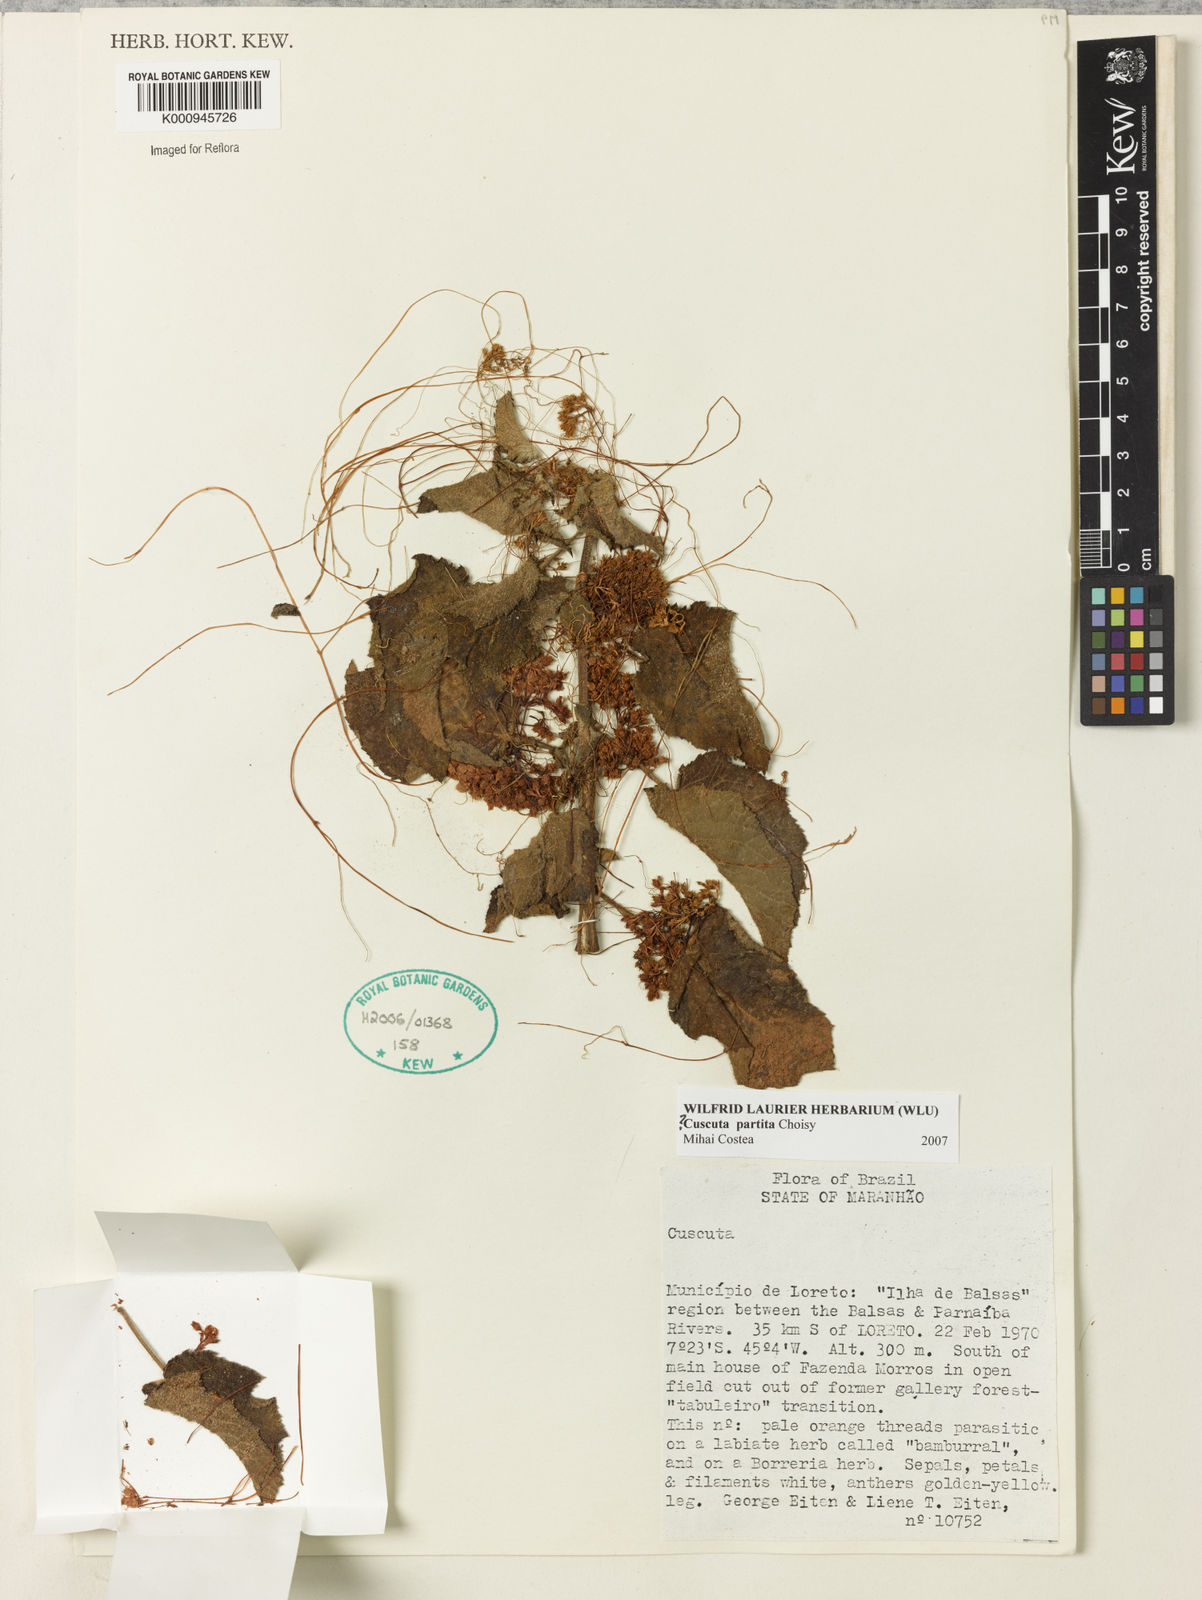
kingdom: Plantae
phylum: Tracheophyta
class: Magnoliopsida
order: Solanales
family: Convolvulaceae
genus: Cuscuta
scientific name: Cuscuta partita
